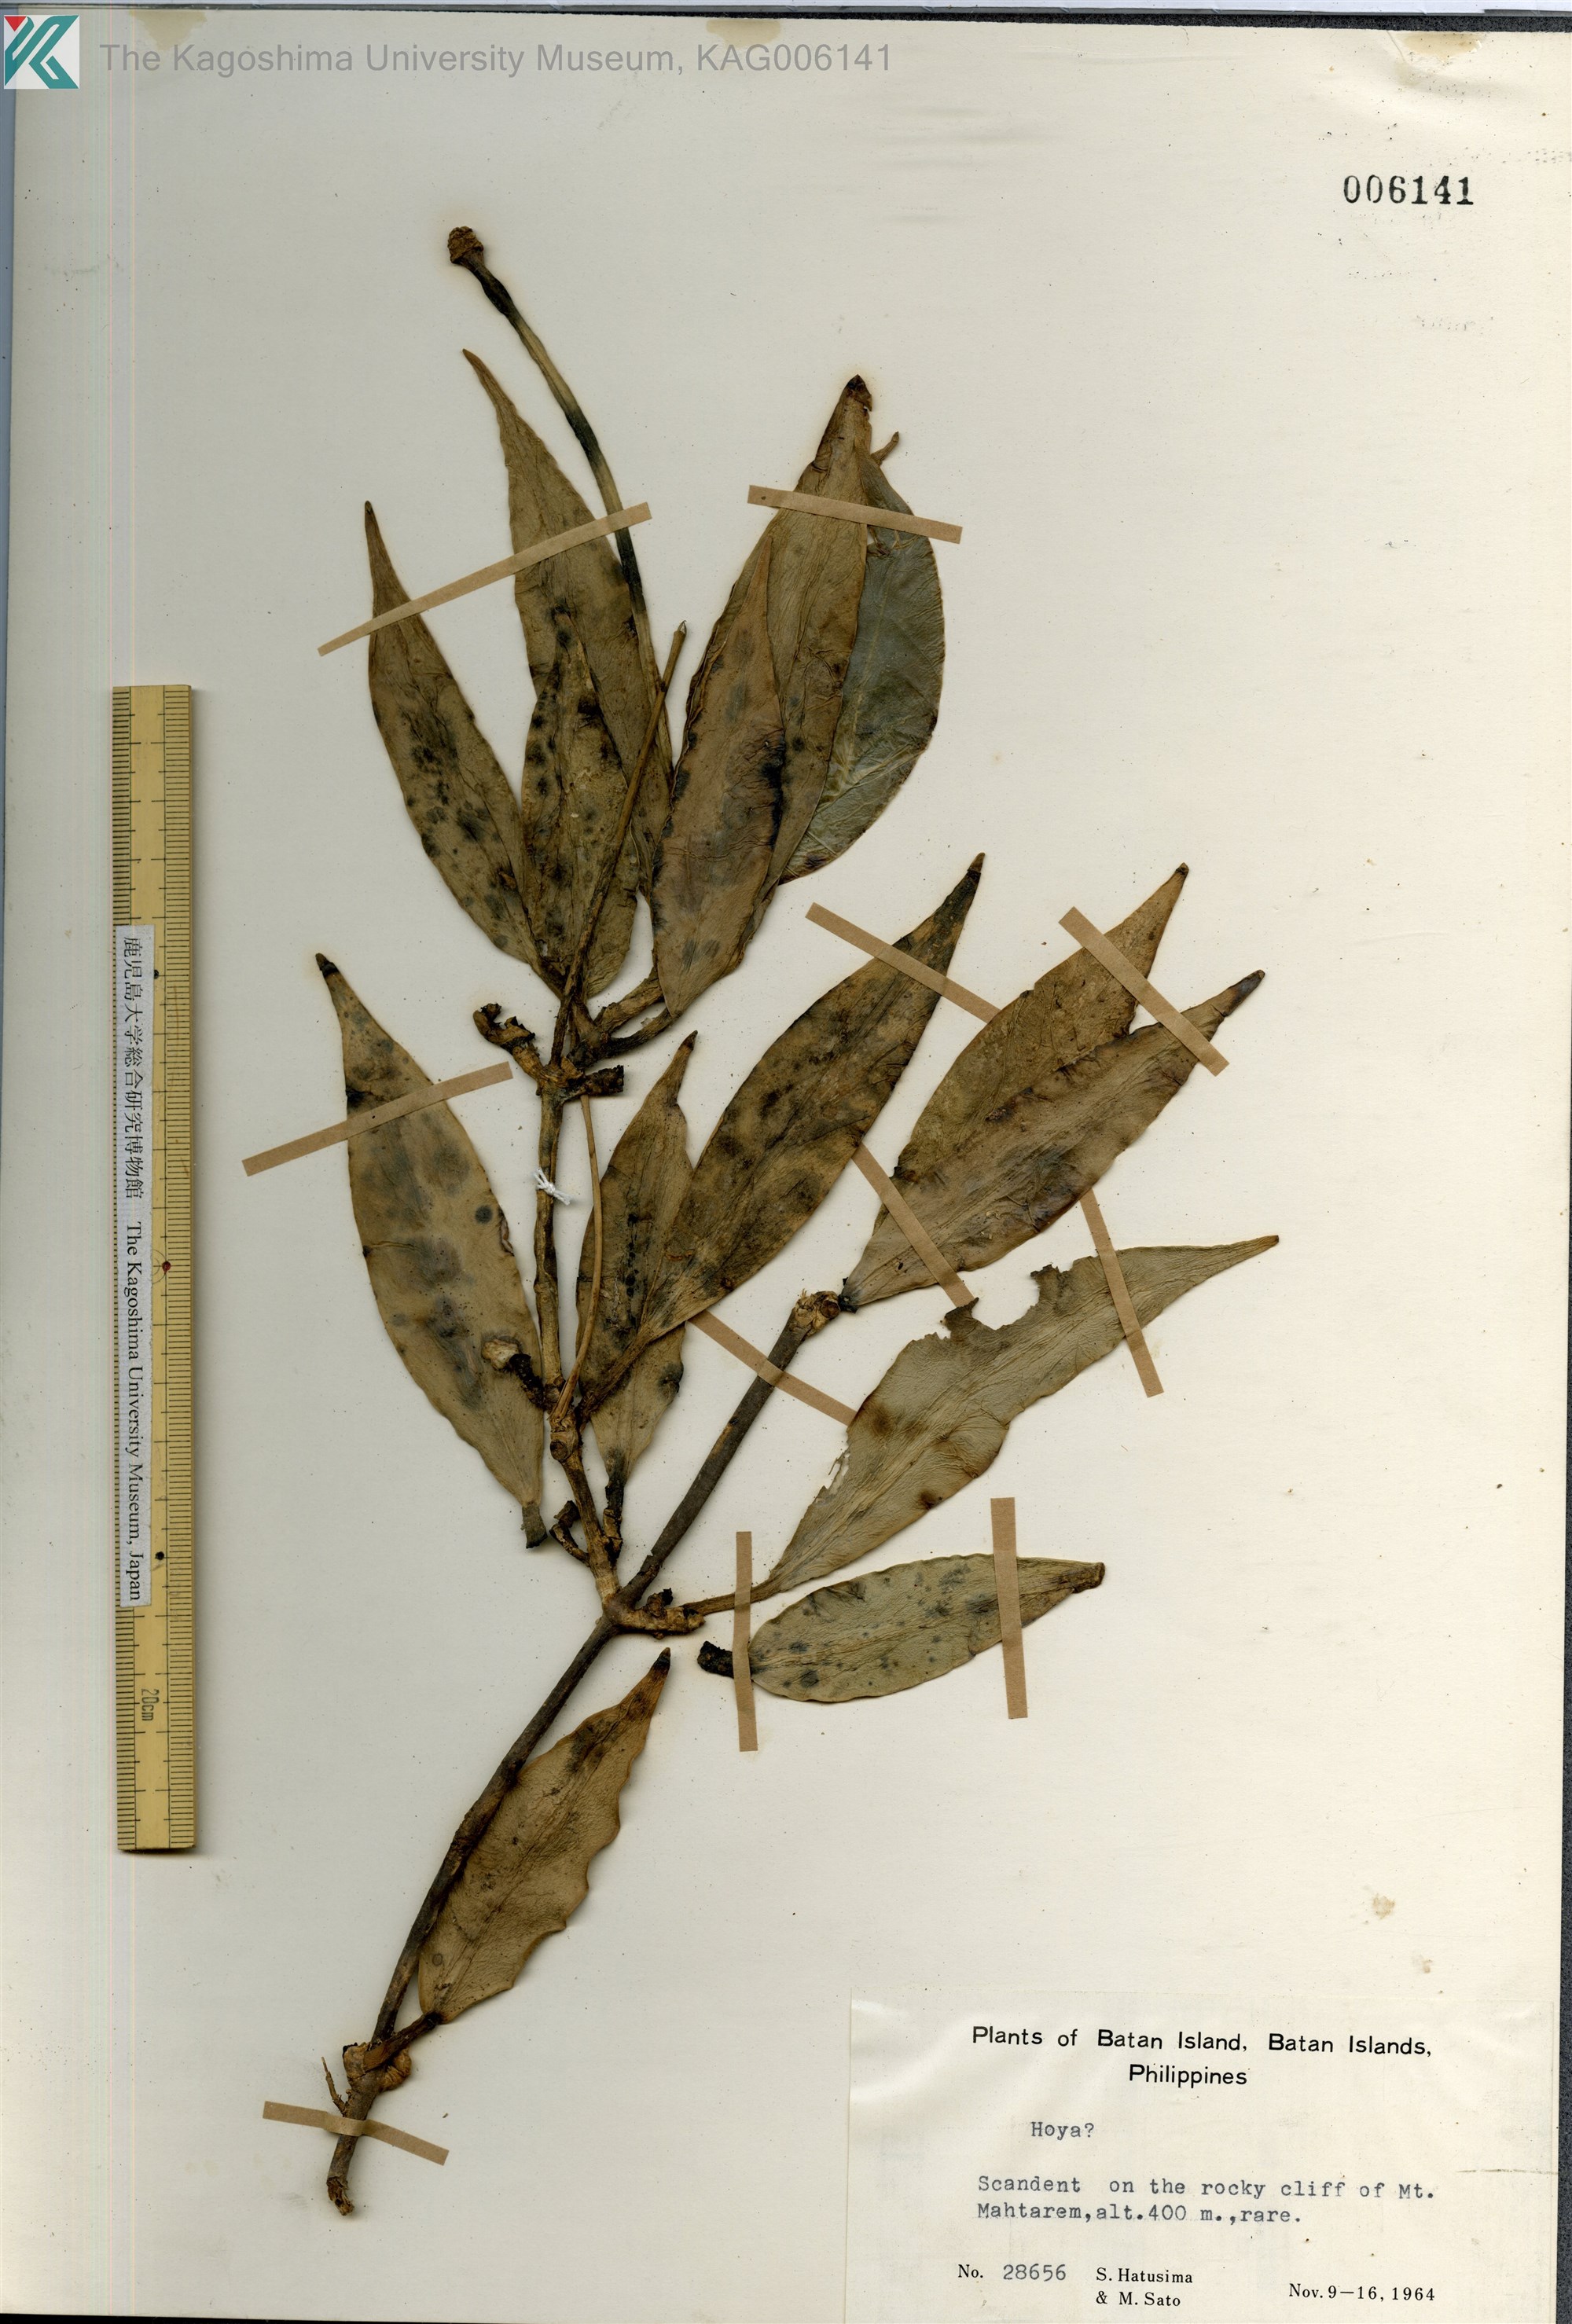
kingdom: Plantae
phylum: Tracheophyta
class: Magnoliopsida
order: Gentianales
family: Apocynaceae
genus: Hoya
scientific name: Hoya
